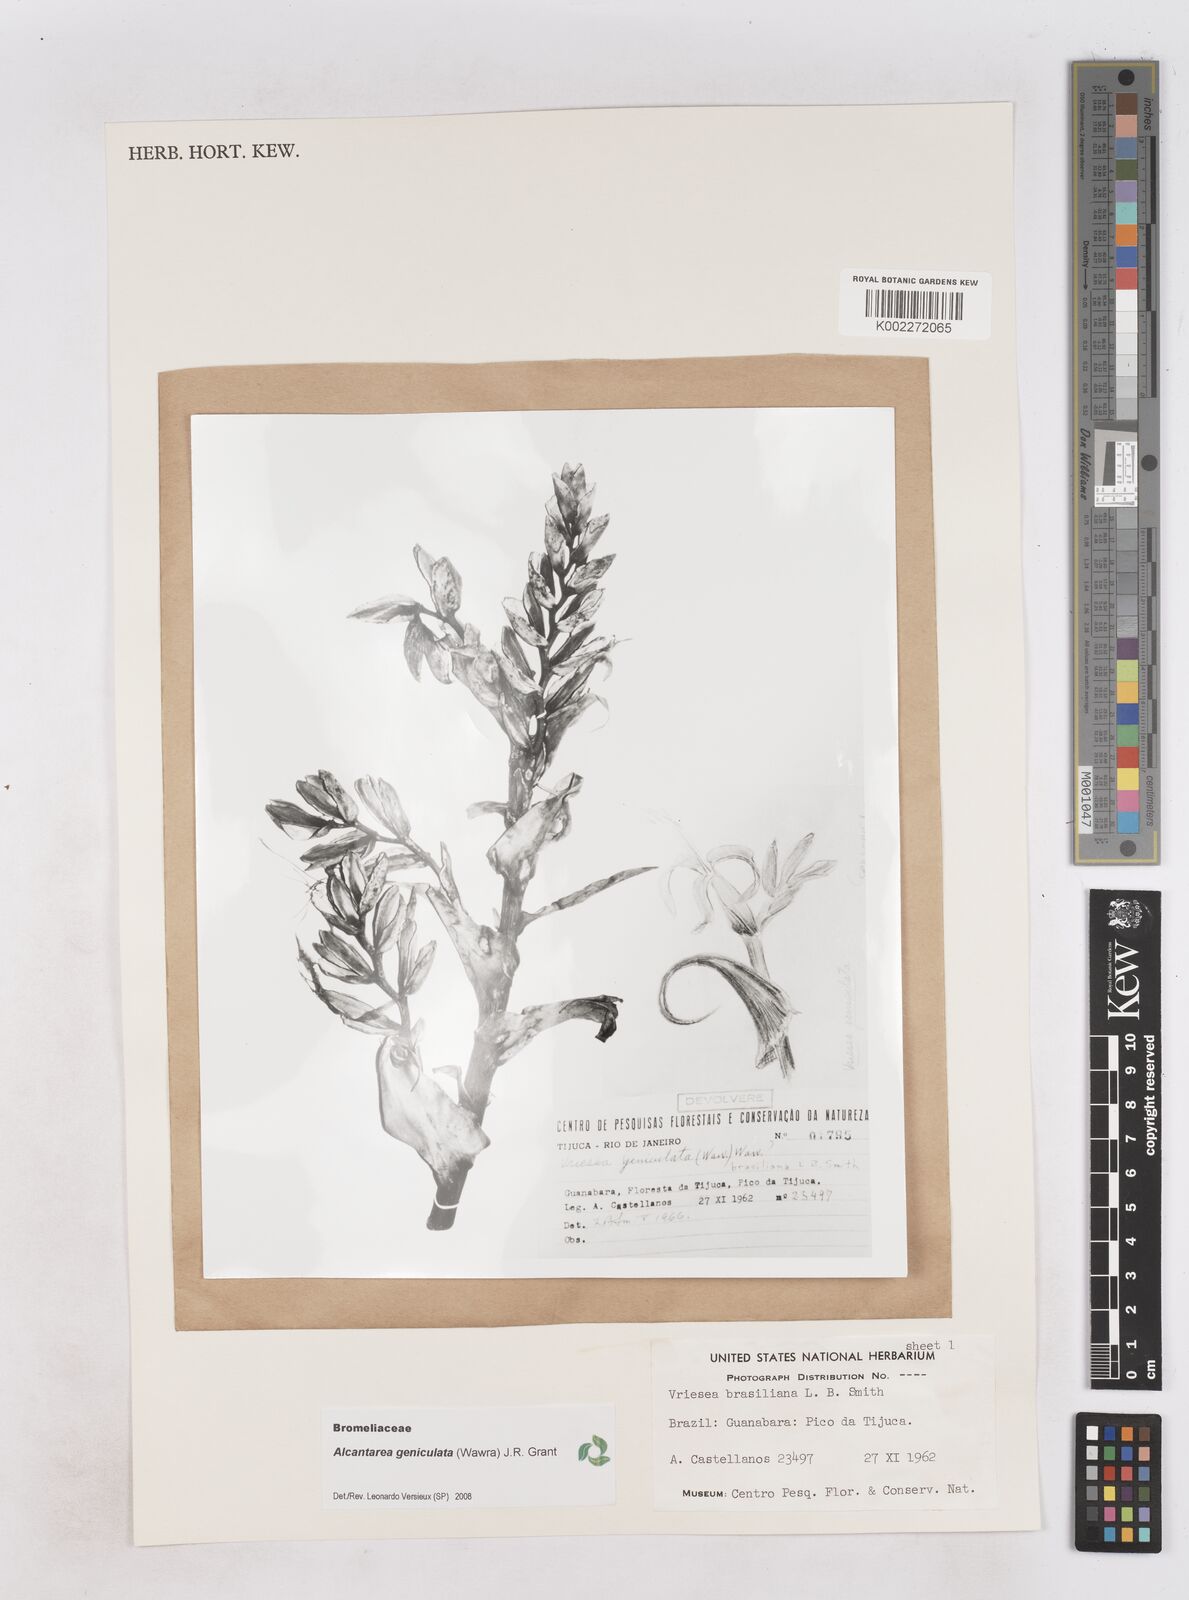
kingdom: Plantae
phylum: Tracheophyta
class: Liliopsida
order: Poales
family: Bromeliaceae
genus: Alcantarea
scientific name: Alcantarea geniculata
